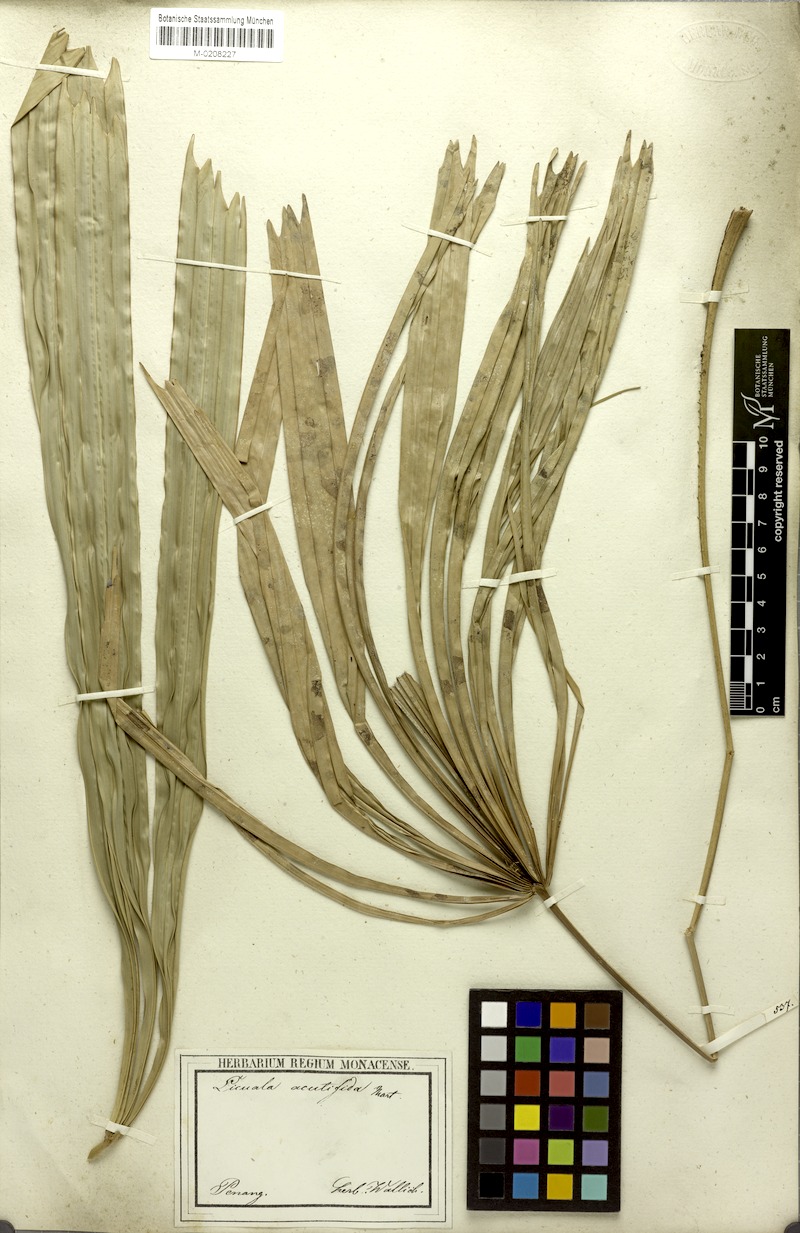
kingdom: Plantae
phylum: Tracheophyta
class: Liliopsida
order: Arecales
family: Arecaceae
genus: Licuala
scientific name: Licuala acutifida
